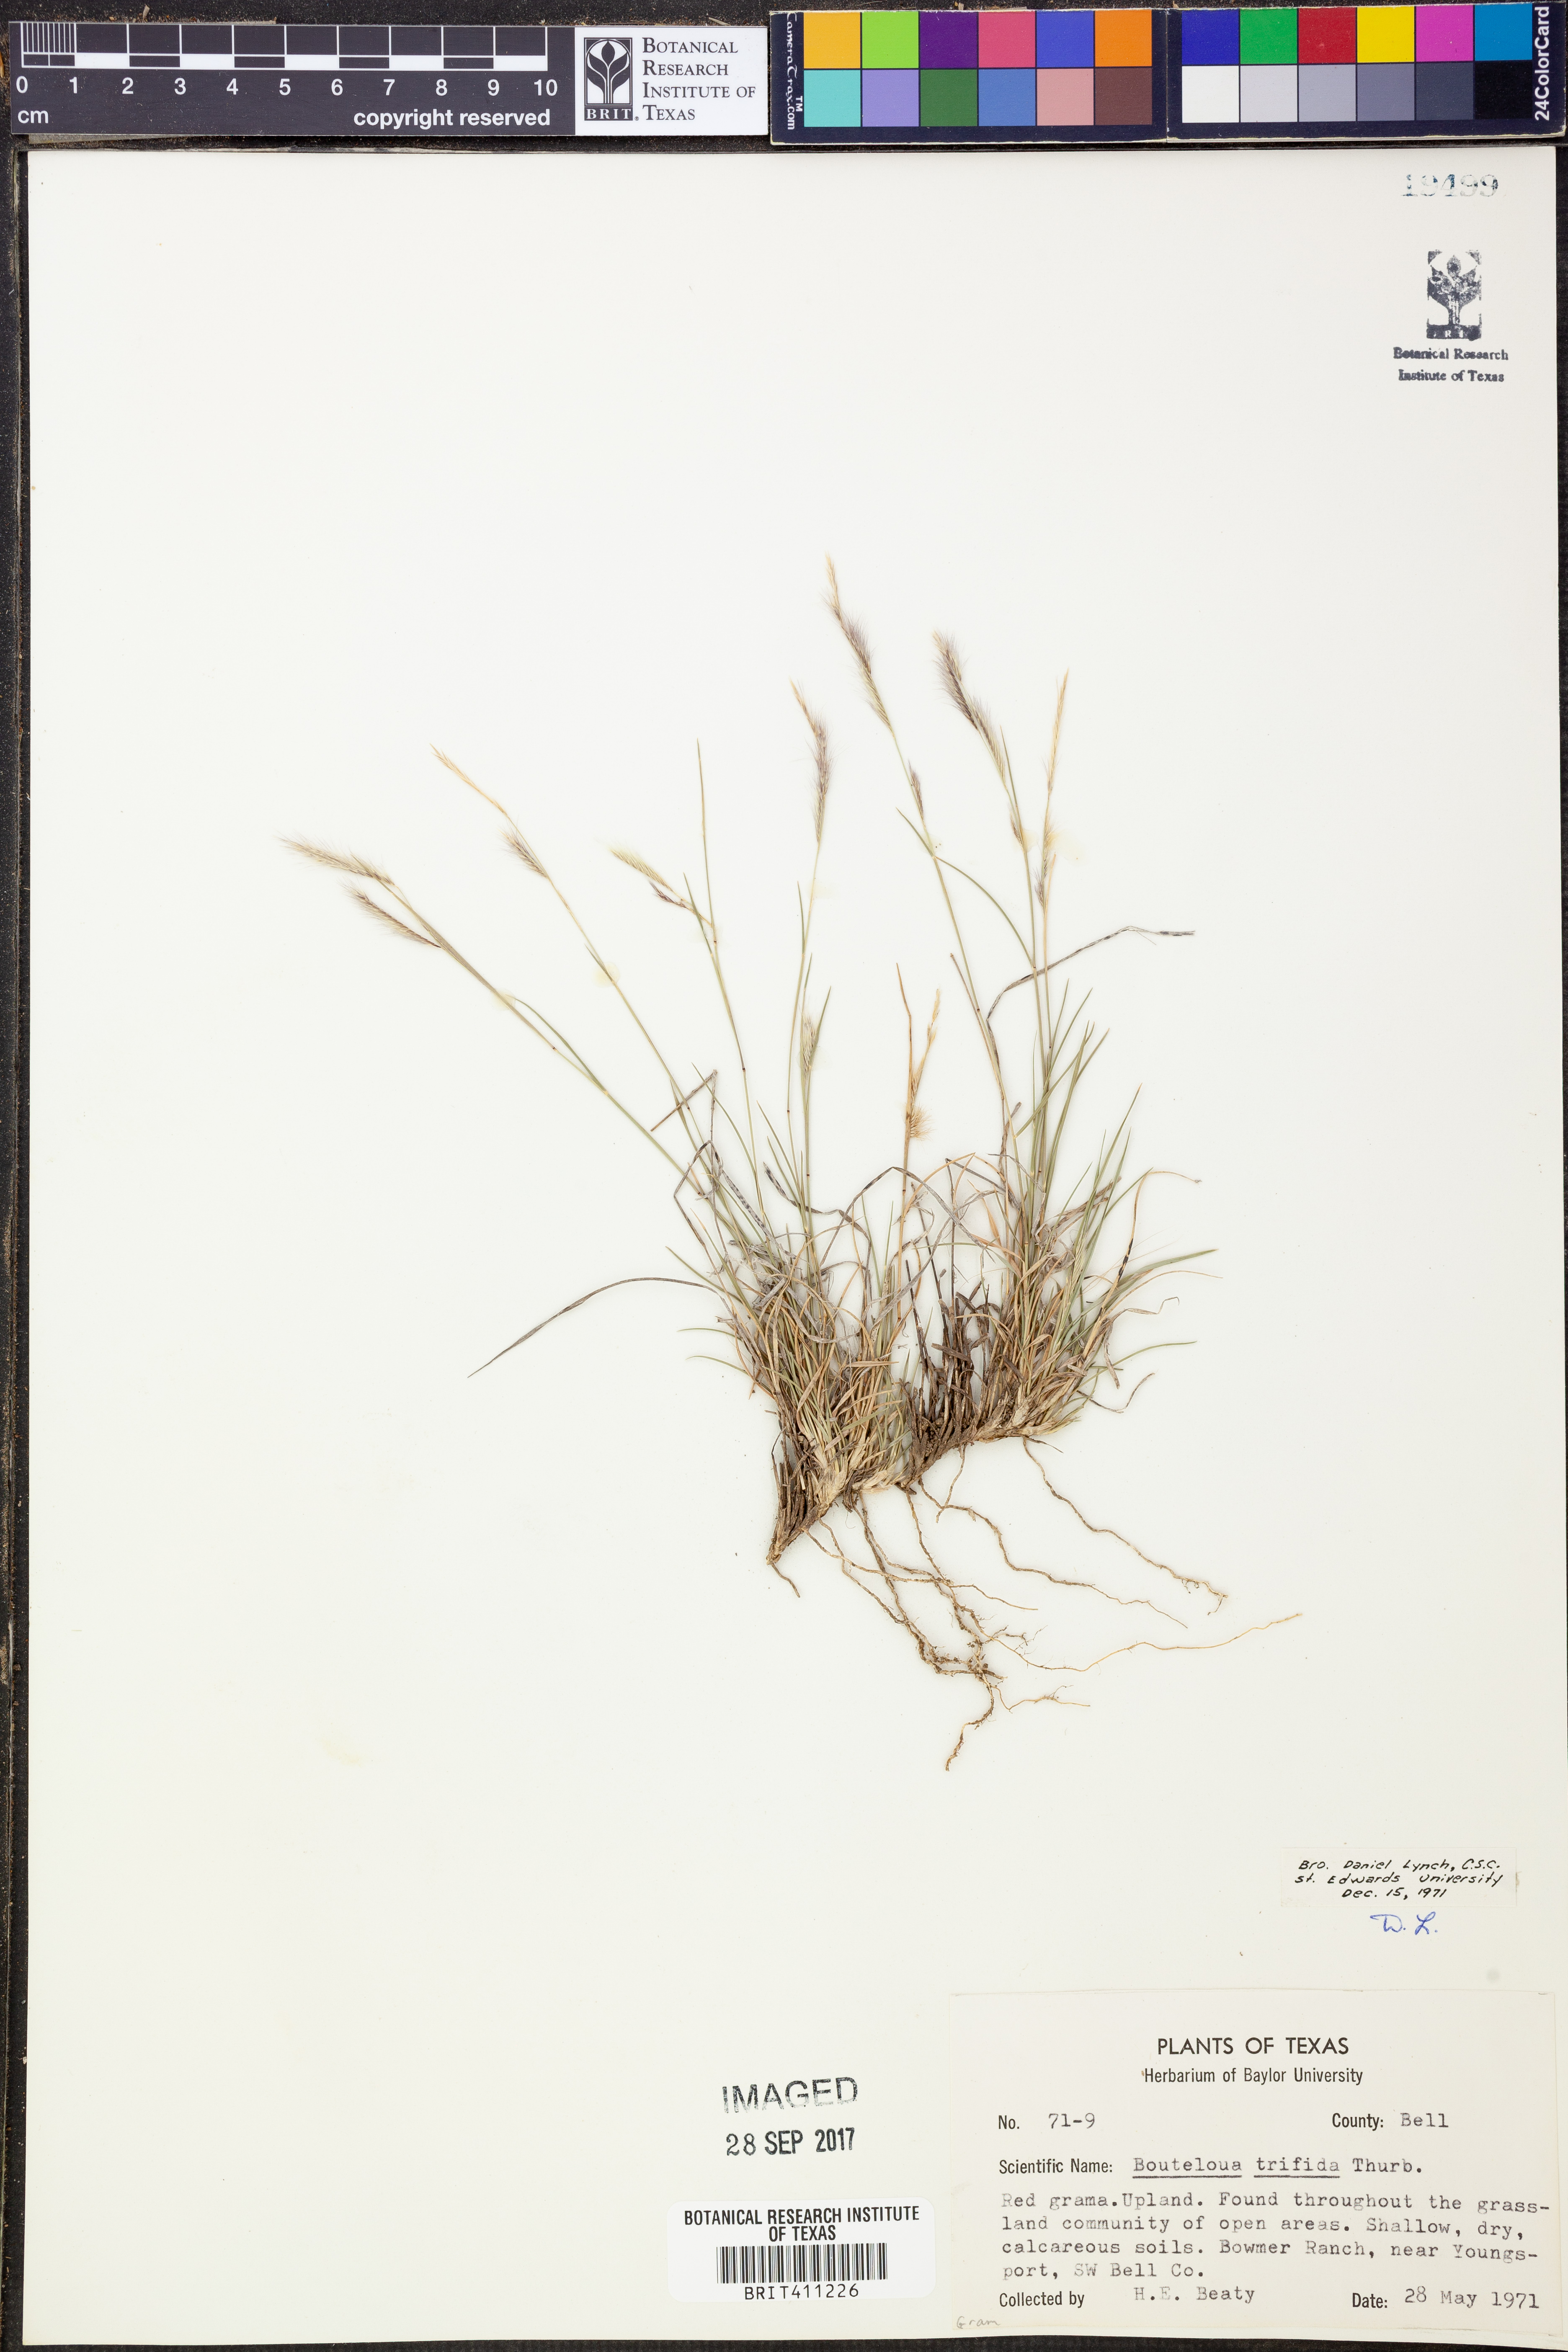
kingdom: Plantae
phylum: Tracheophyta
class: Liliopsida
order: Poales
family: Poaceae
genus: Bouteloua
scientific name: Bouteloua trifida
